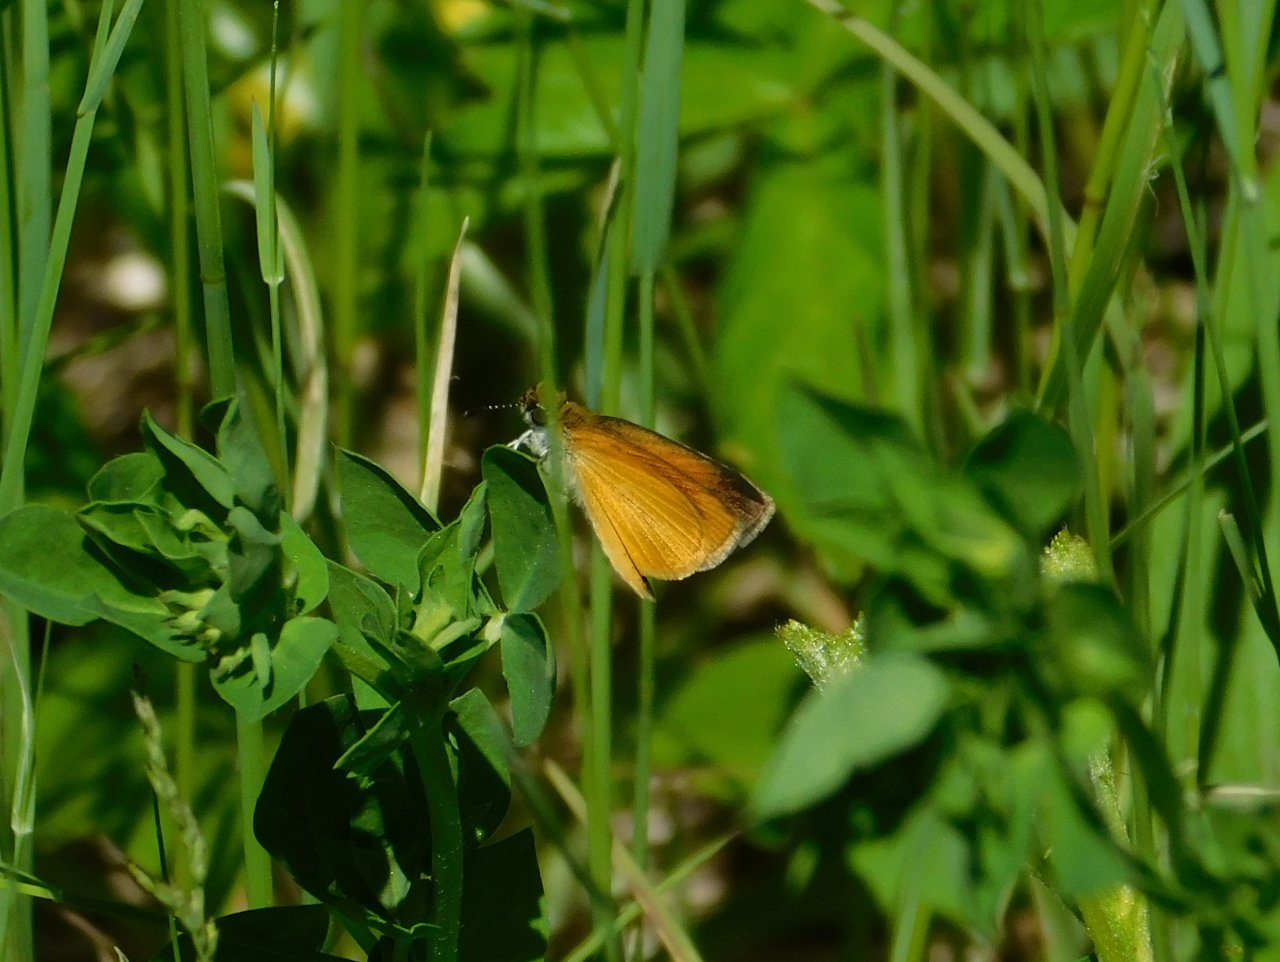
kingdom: Animalia
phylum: Arthropoda
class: Insecta
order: Lepidoptera
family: Hesperiidae
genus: Ancyloxypha
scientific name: Ancyloxypha numitor
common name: Least Skipper
